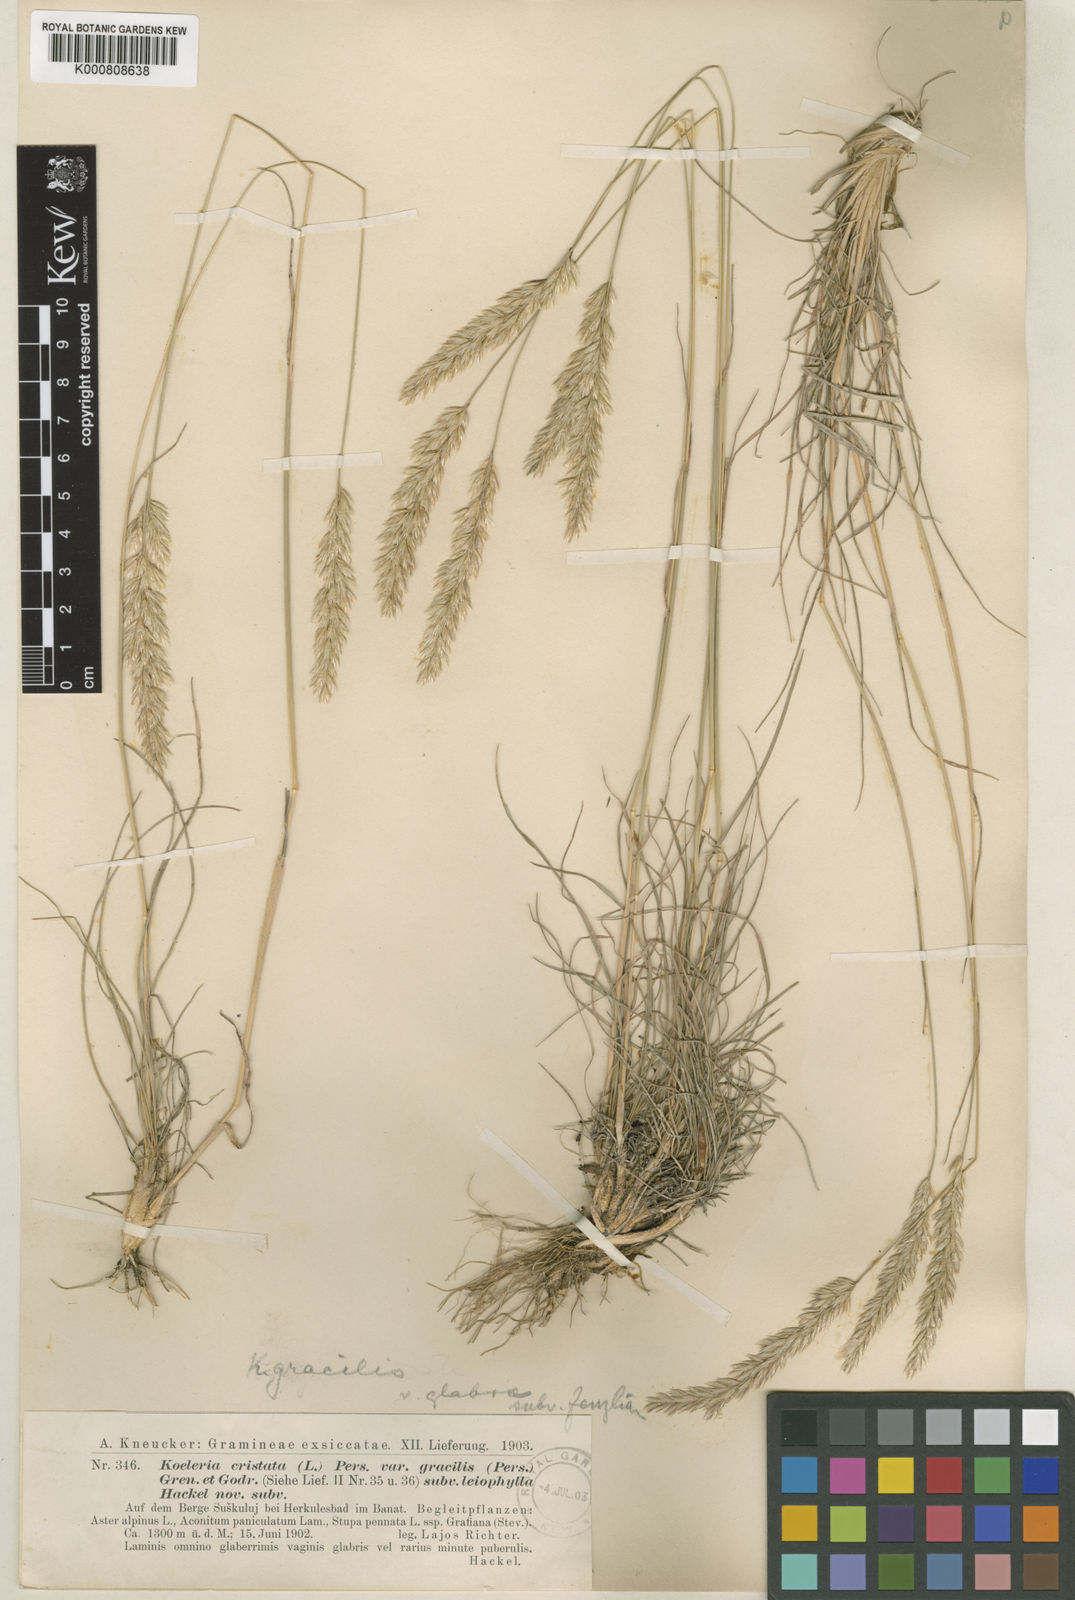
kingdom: Plantae
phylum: Tracheophyta
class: Liliopsida
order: Poales
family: Poaceae
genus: Koeleria
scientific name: Koeleria macrantha
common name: Crested hair-grass
